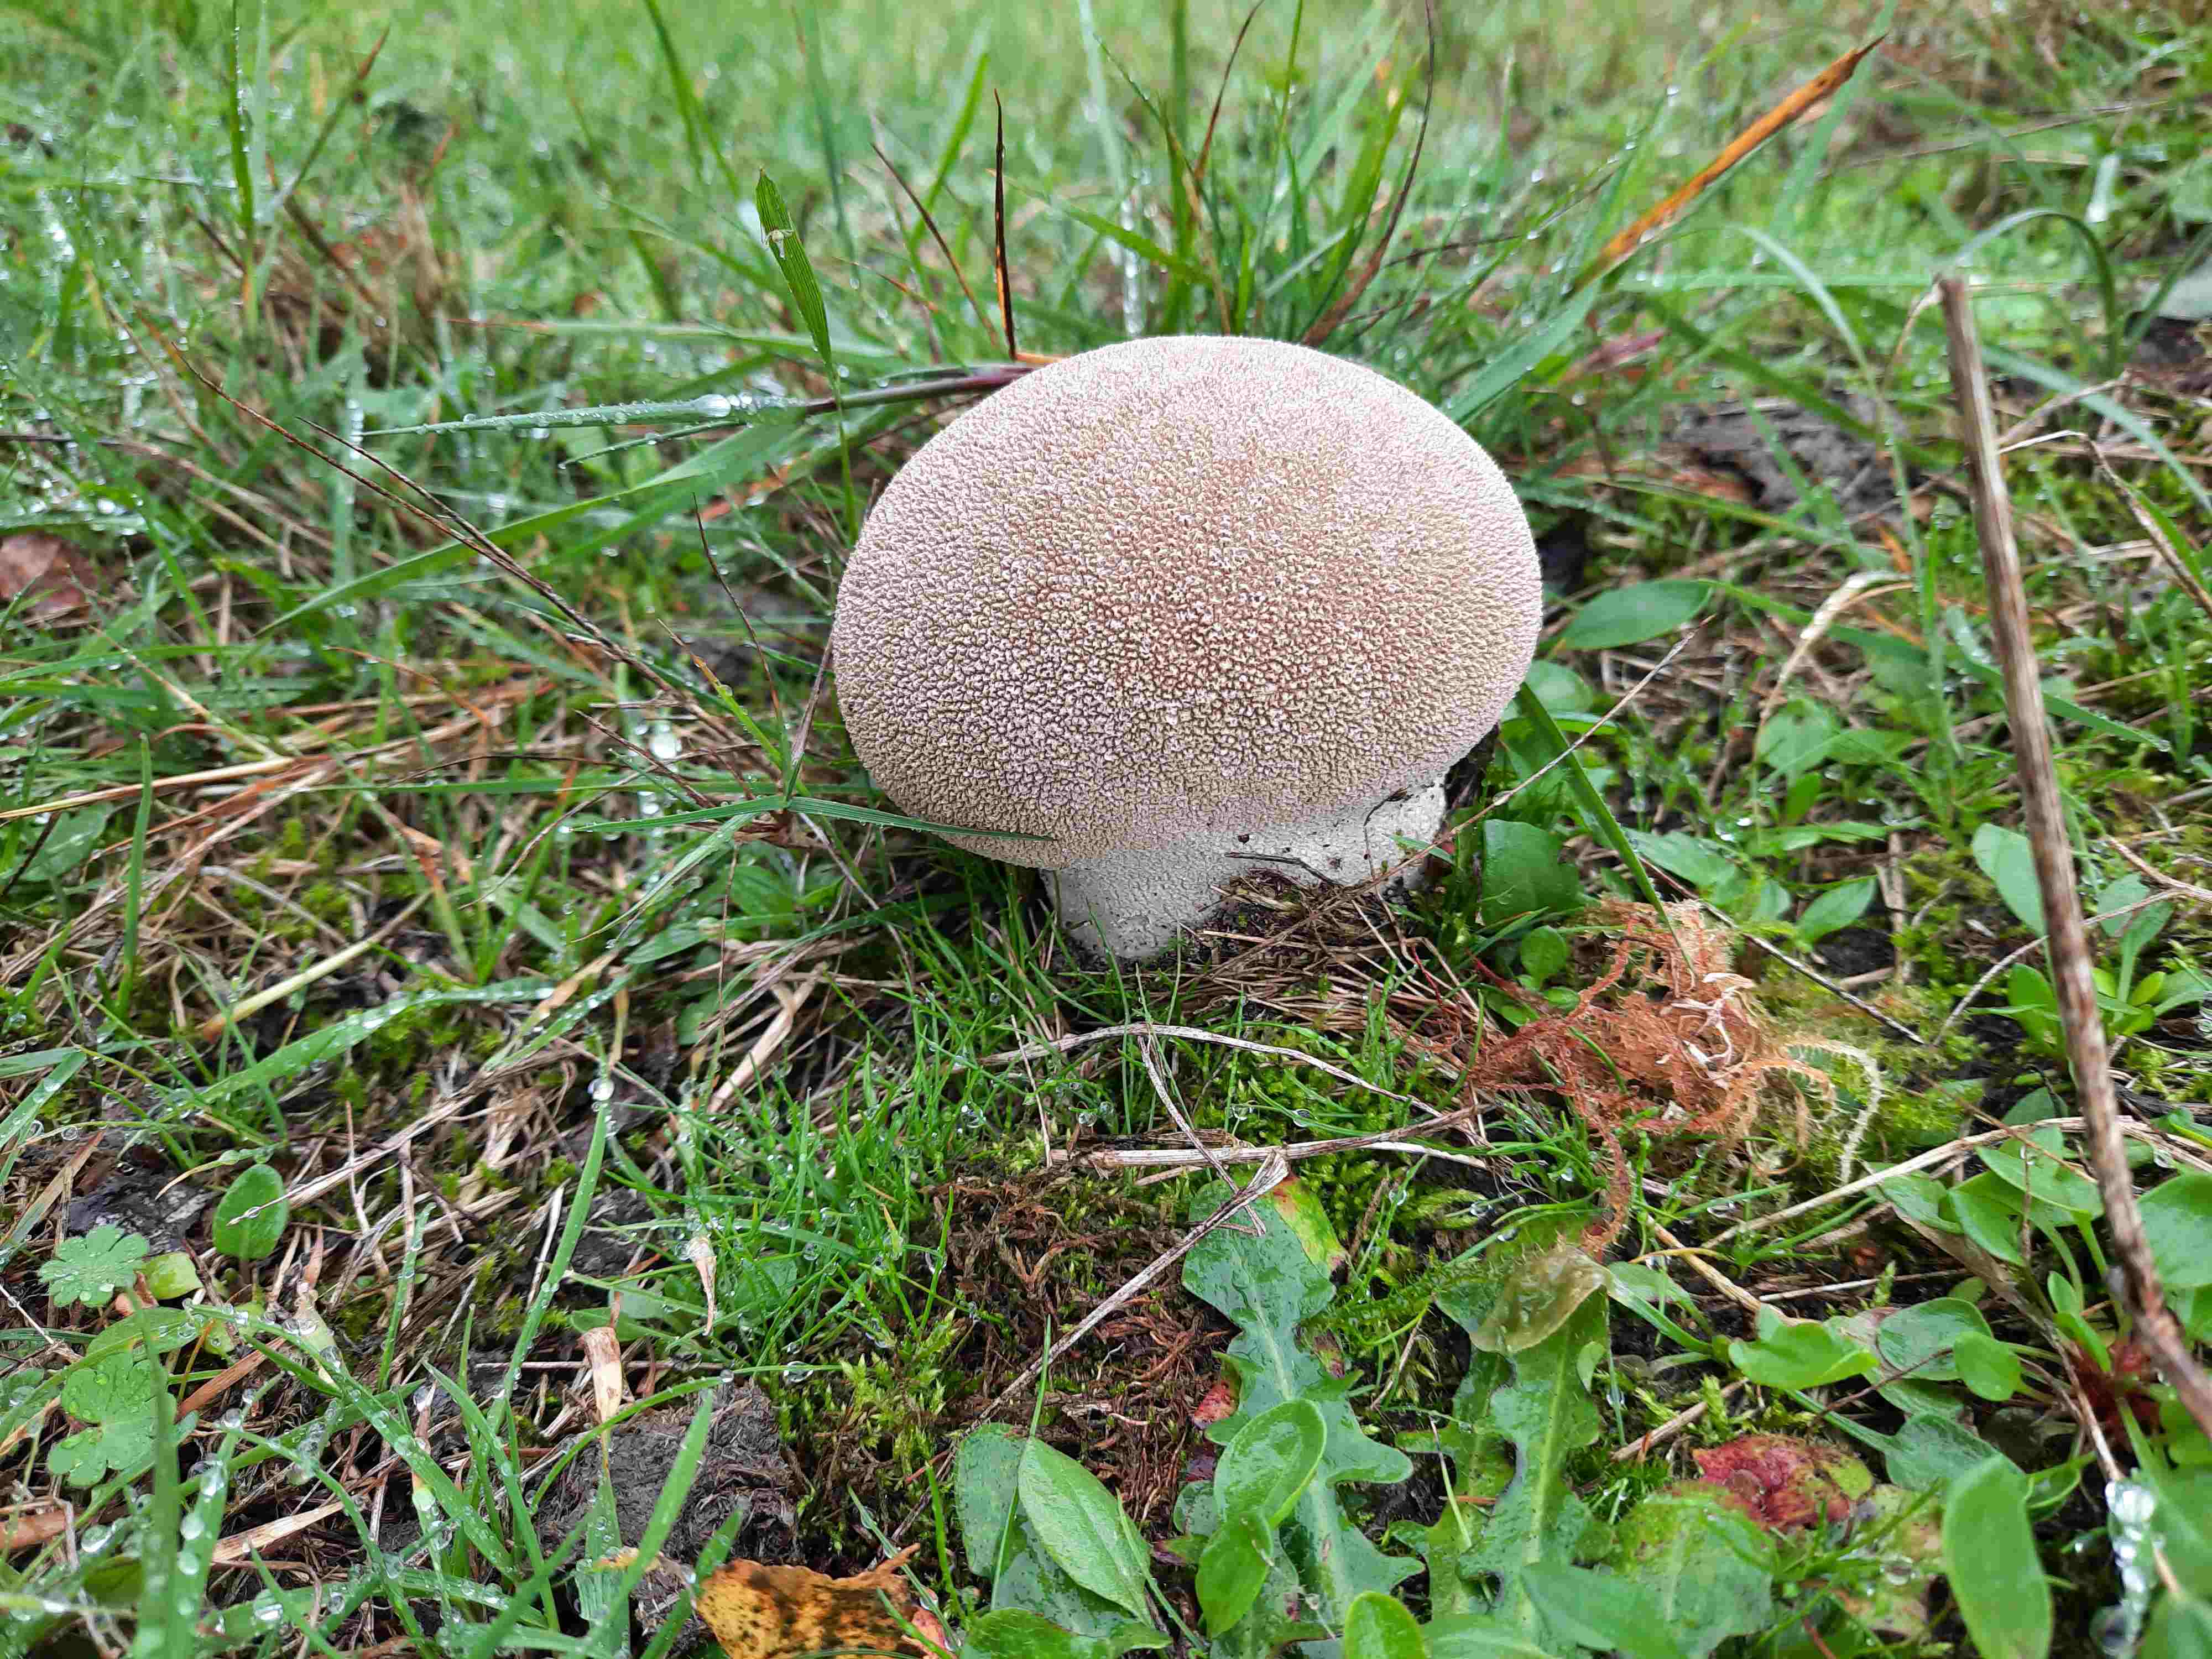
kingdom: Fungi
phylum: Basidiomycota
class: Agaricomycetes
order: Agaricales
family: Lycoperdaceae
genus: Bovistella
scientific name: Bovistella utriformis
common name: skællet støvbold
